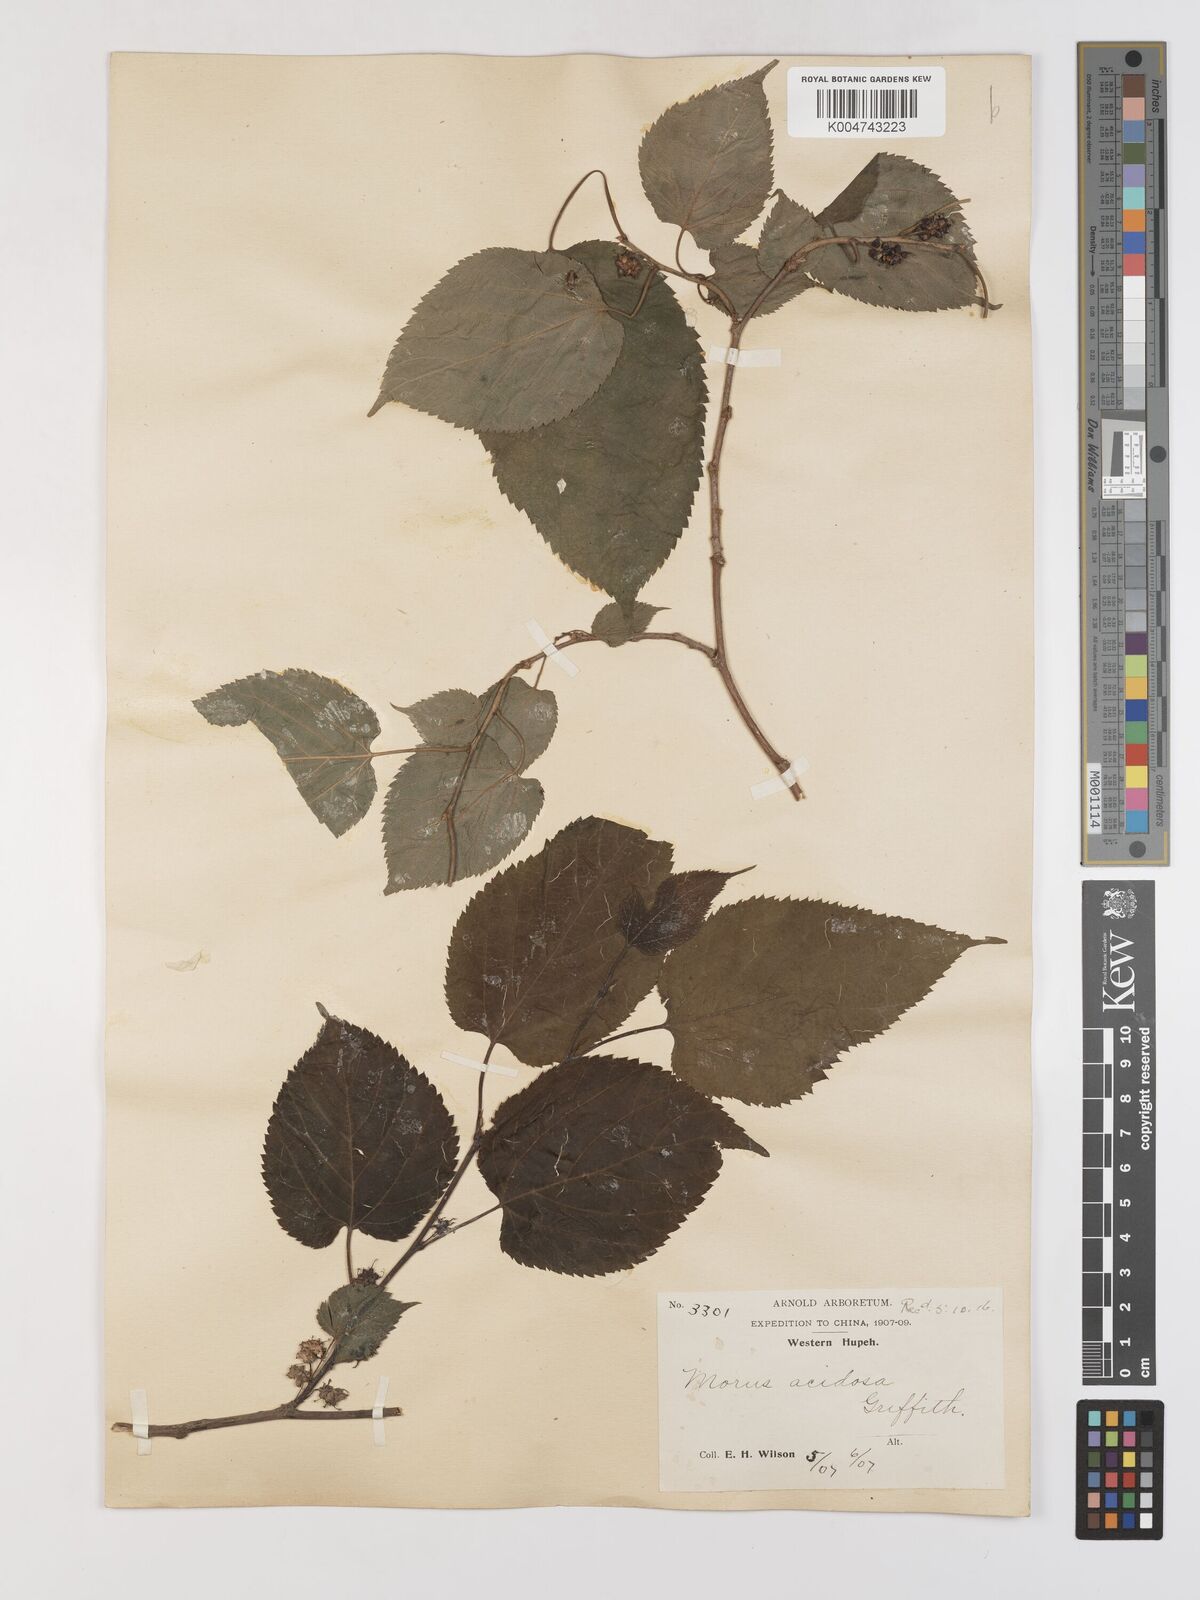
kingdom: Plantae
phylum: Tracheophyta
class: Magnoliopsida
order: Rosales
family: Moraceae
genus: Morus
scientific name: Morus indica
